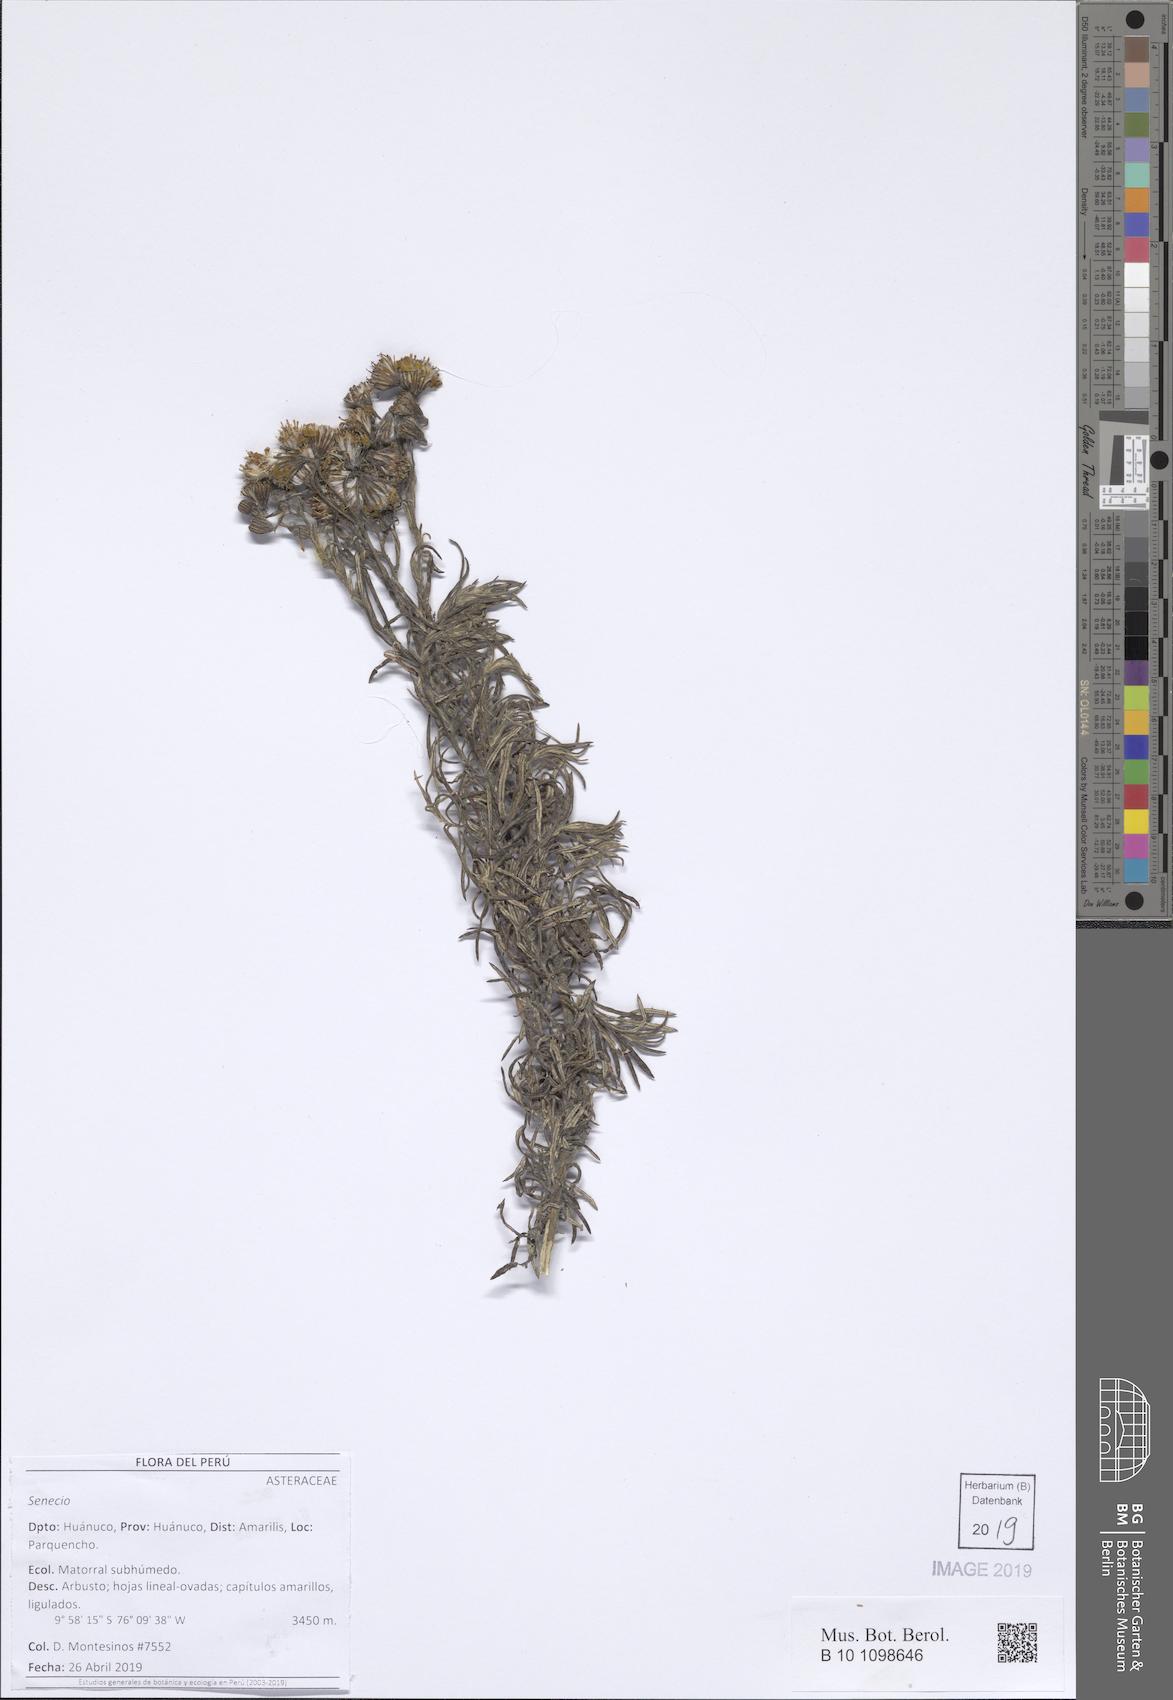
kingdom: Plantae
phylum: Tracheophyta
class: Magnoliopsida
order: Asterales
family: Asteraceae
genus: Senecio
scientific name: Senecio melanocalyx
